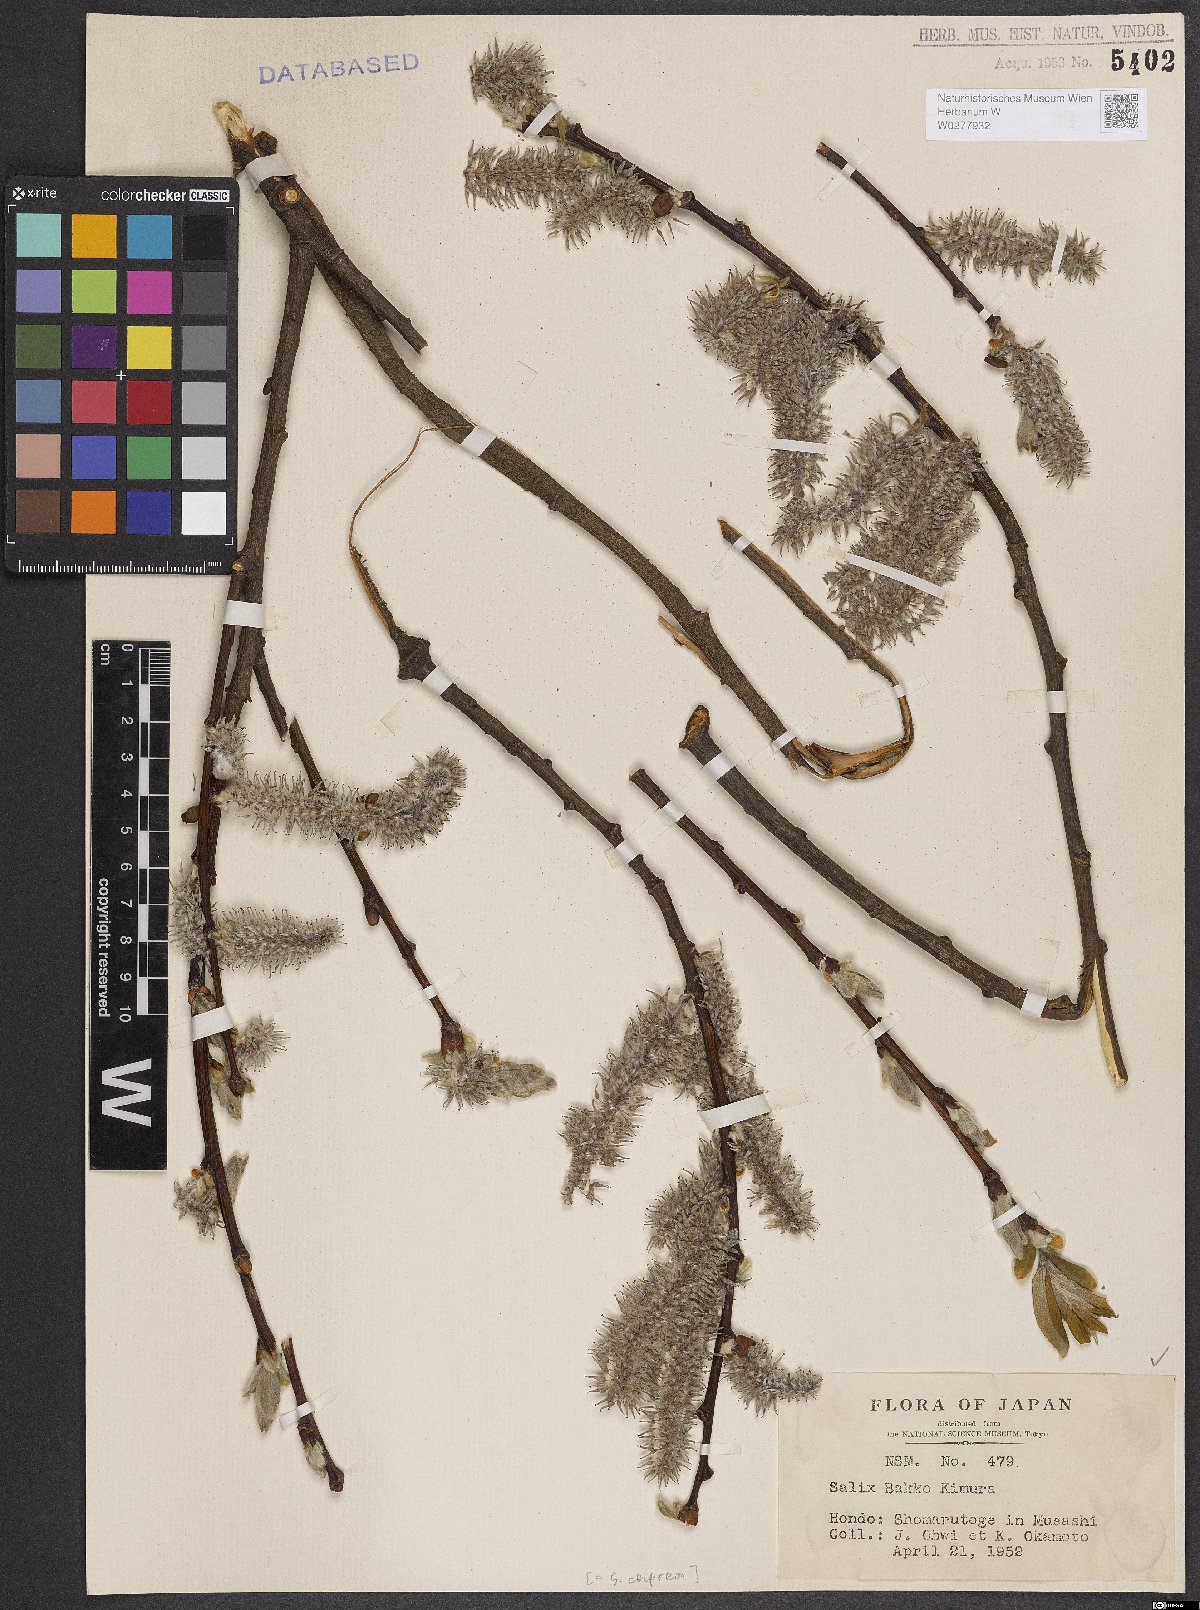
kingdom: Plantae
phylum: Tracheophyta
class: Magnoliopsida
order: Malpighiales
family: Salicaceae
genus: Salix
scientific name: Salix caprea
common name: Goat willow
